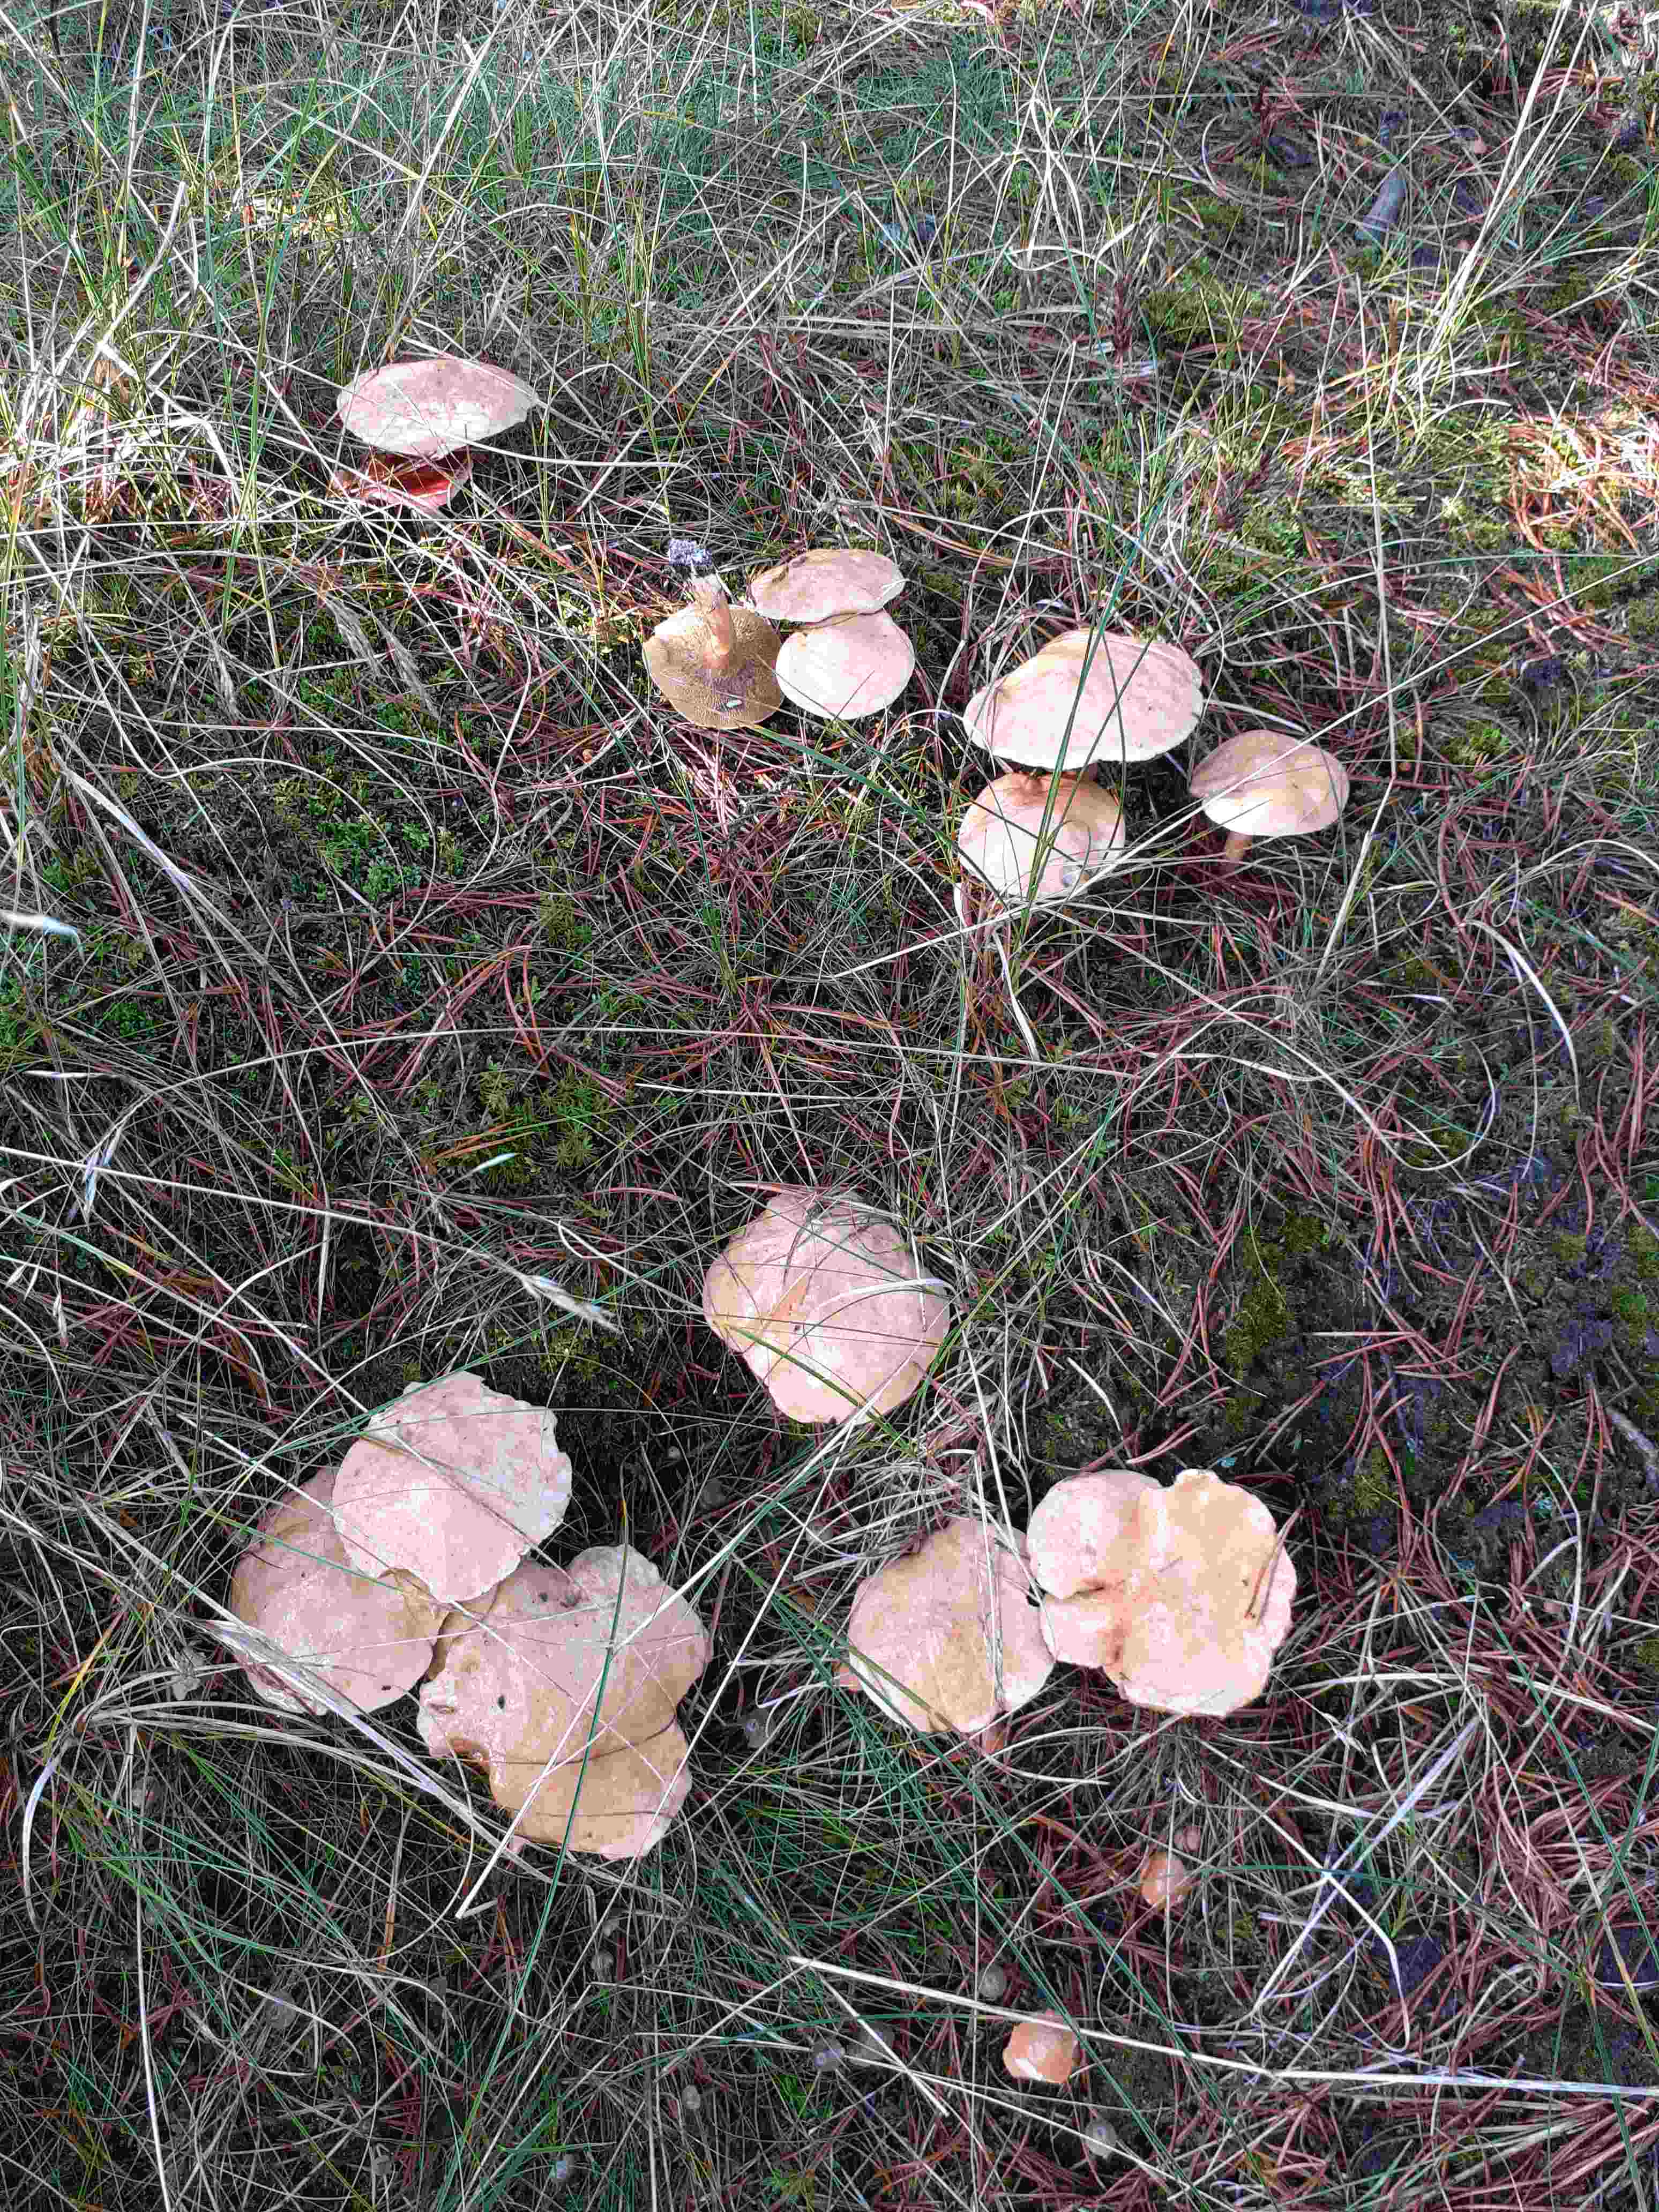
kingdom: Fungi
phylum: Basidiomycota
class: Agaricomycetes
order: Boletales
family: Suillaceae
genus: Suillus
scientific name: Suillus bovinus
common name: grovporet slimrørhat
